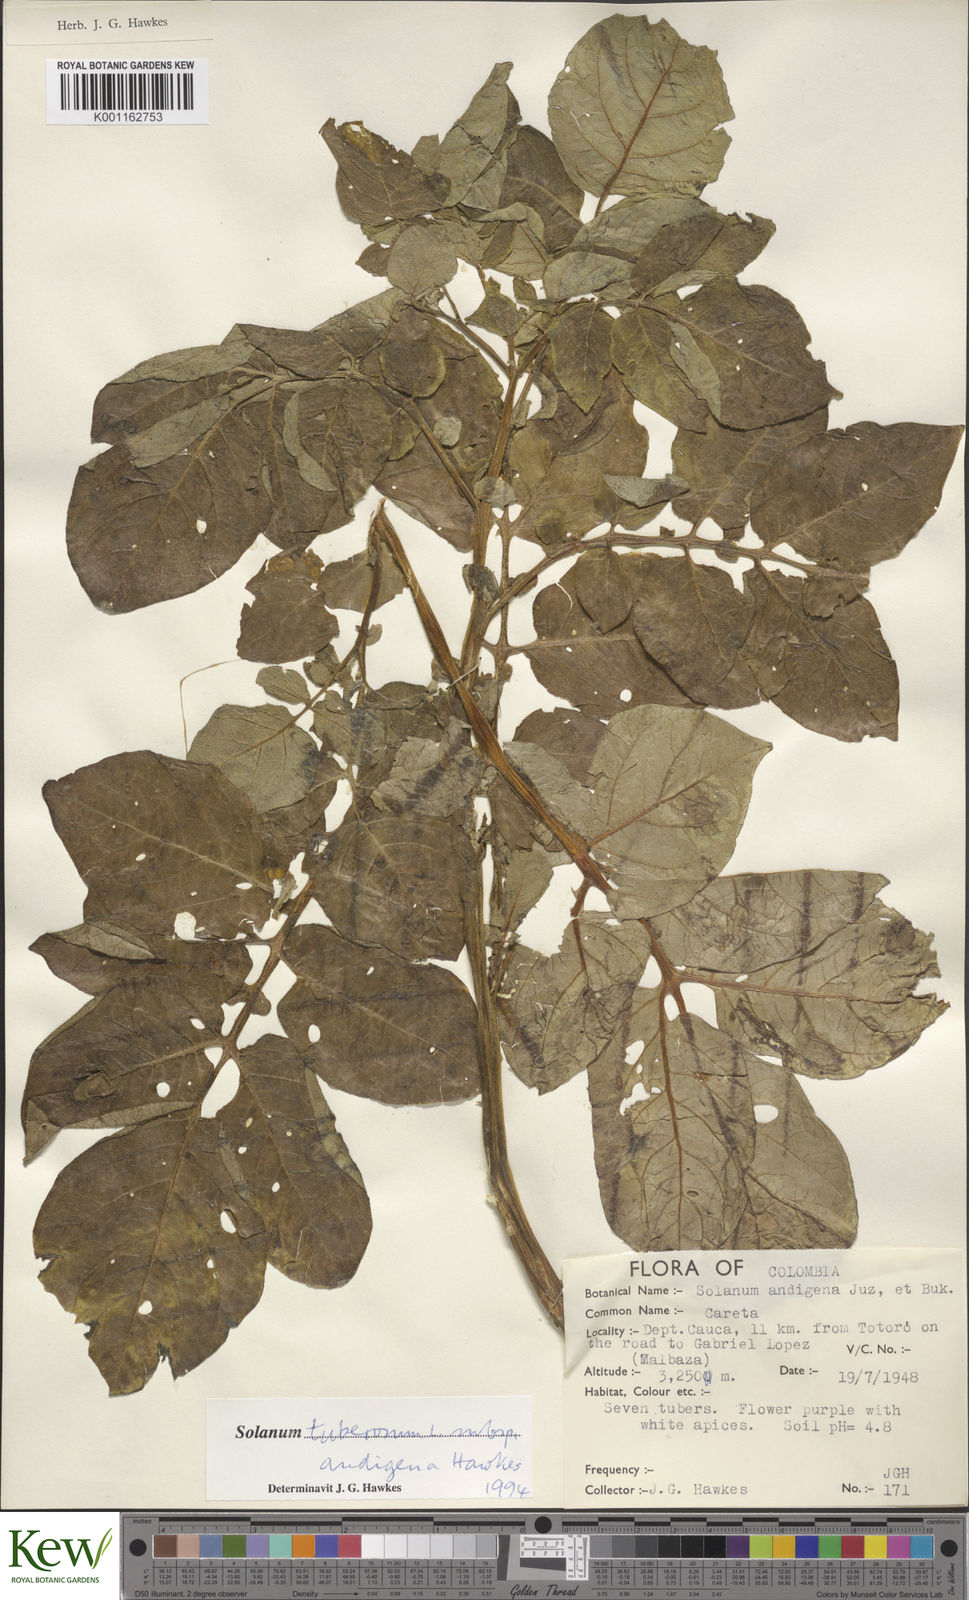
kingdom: Plantae
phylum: Tracheophyta
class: Magnoliopsida
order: Solanales
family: Solanaceae
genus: Solanum
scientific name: Solanum tuberosum
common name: Potato
